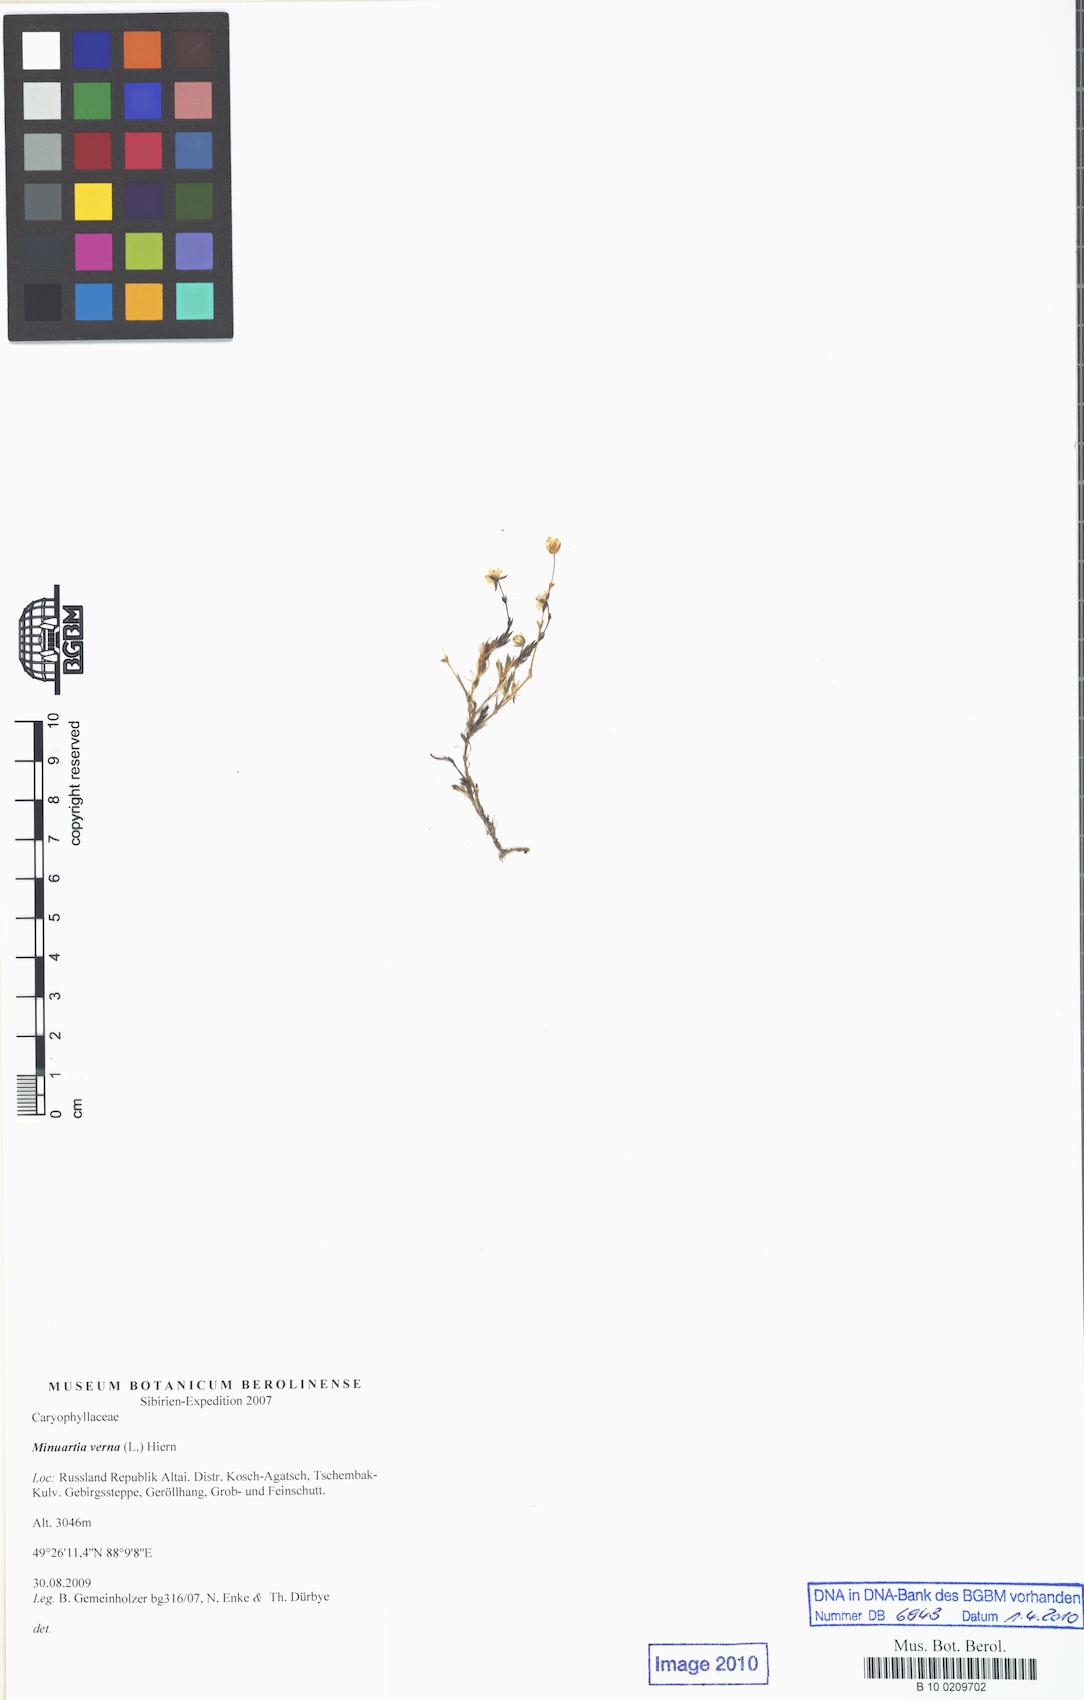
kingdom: Plantae
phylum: Tracheophyta
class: Magnoliopsida
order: Caryophyllales
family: Caryophyllaceae
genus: Sabulina
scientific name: Sabulina verna
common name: Spring sandwort
